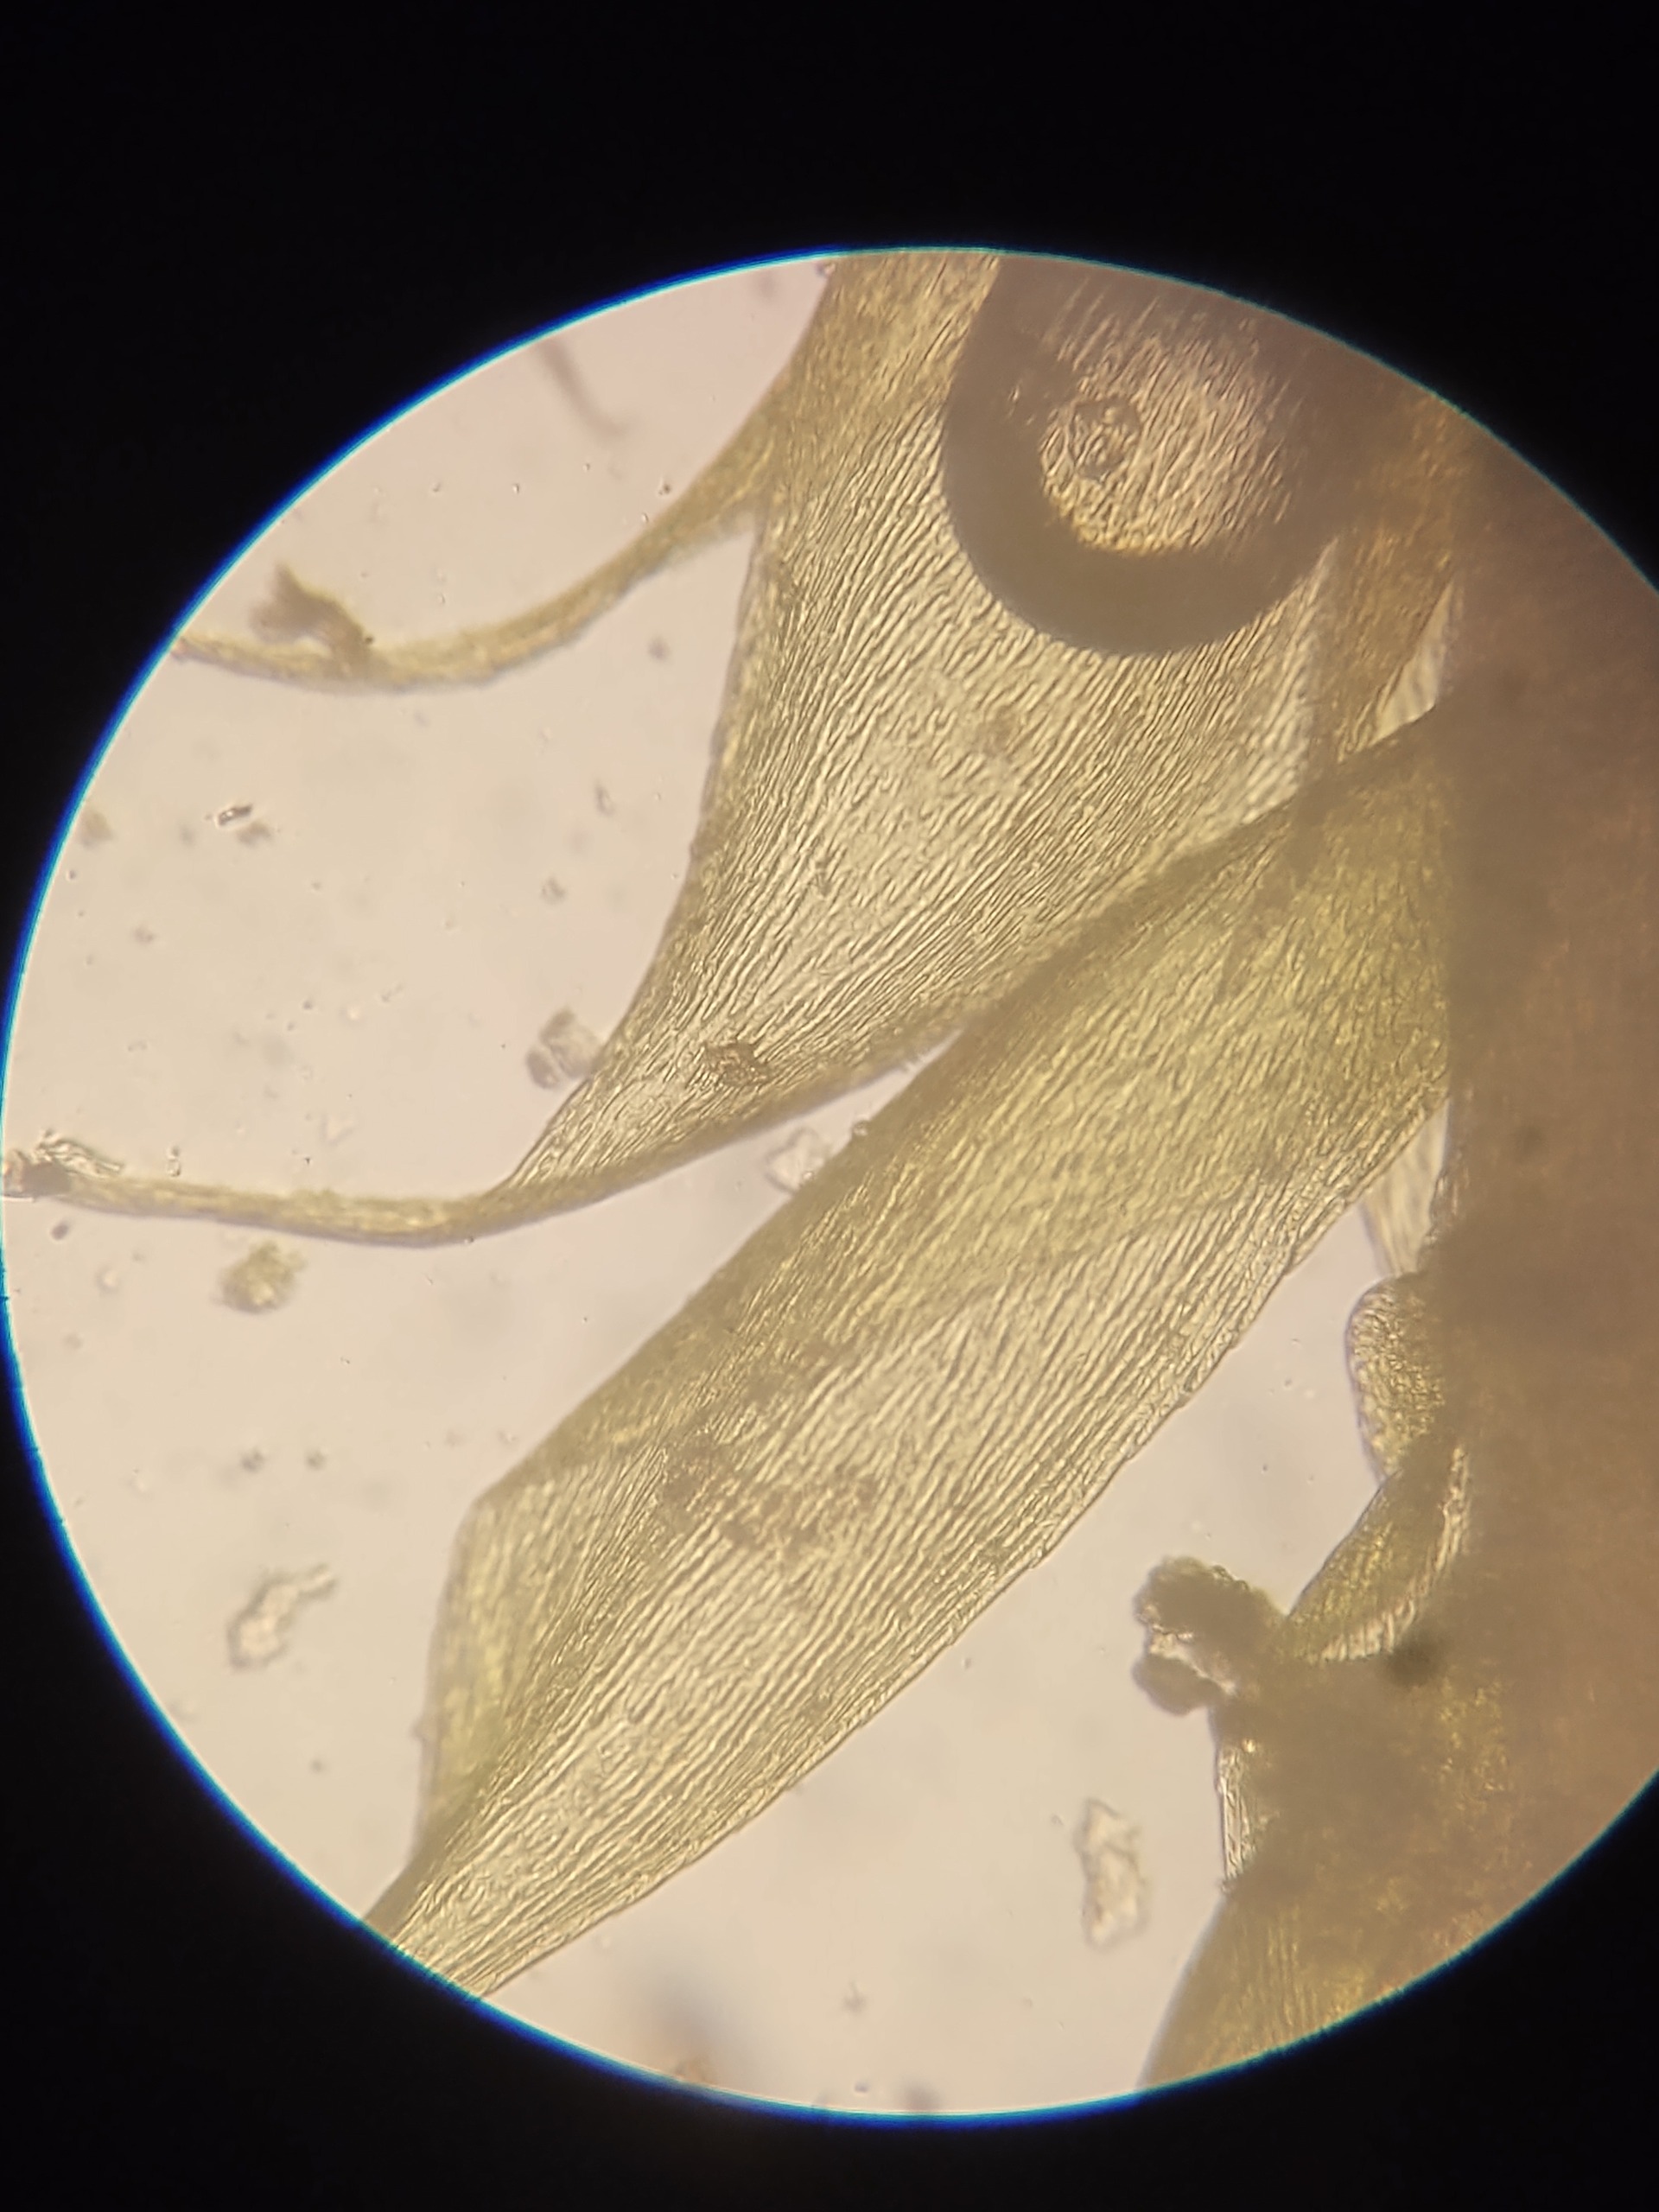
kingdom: Plantae
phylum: Bryophyta
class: Bryopsida
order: Hypnales
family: Hypnaceae
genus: Hypnum
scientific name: Hypnum cupressiforme
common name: Almindelig cypresmos
